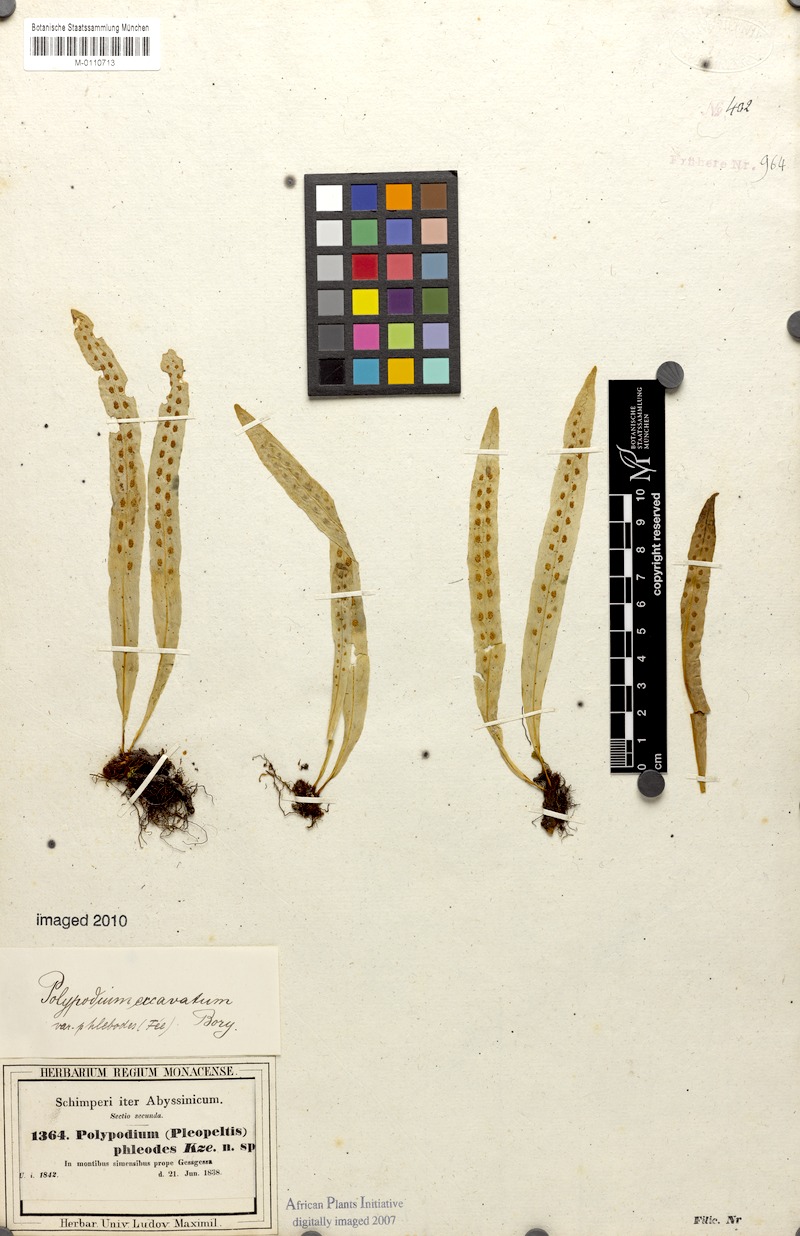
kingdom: Plantae
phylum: Tracheophyta
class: Polypodiopsida
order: Polypodiales
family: Polypodiaceae
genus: Lepisorus
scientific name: Lepisorus excavatus
